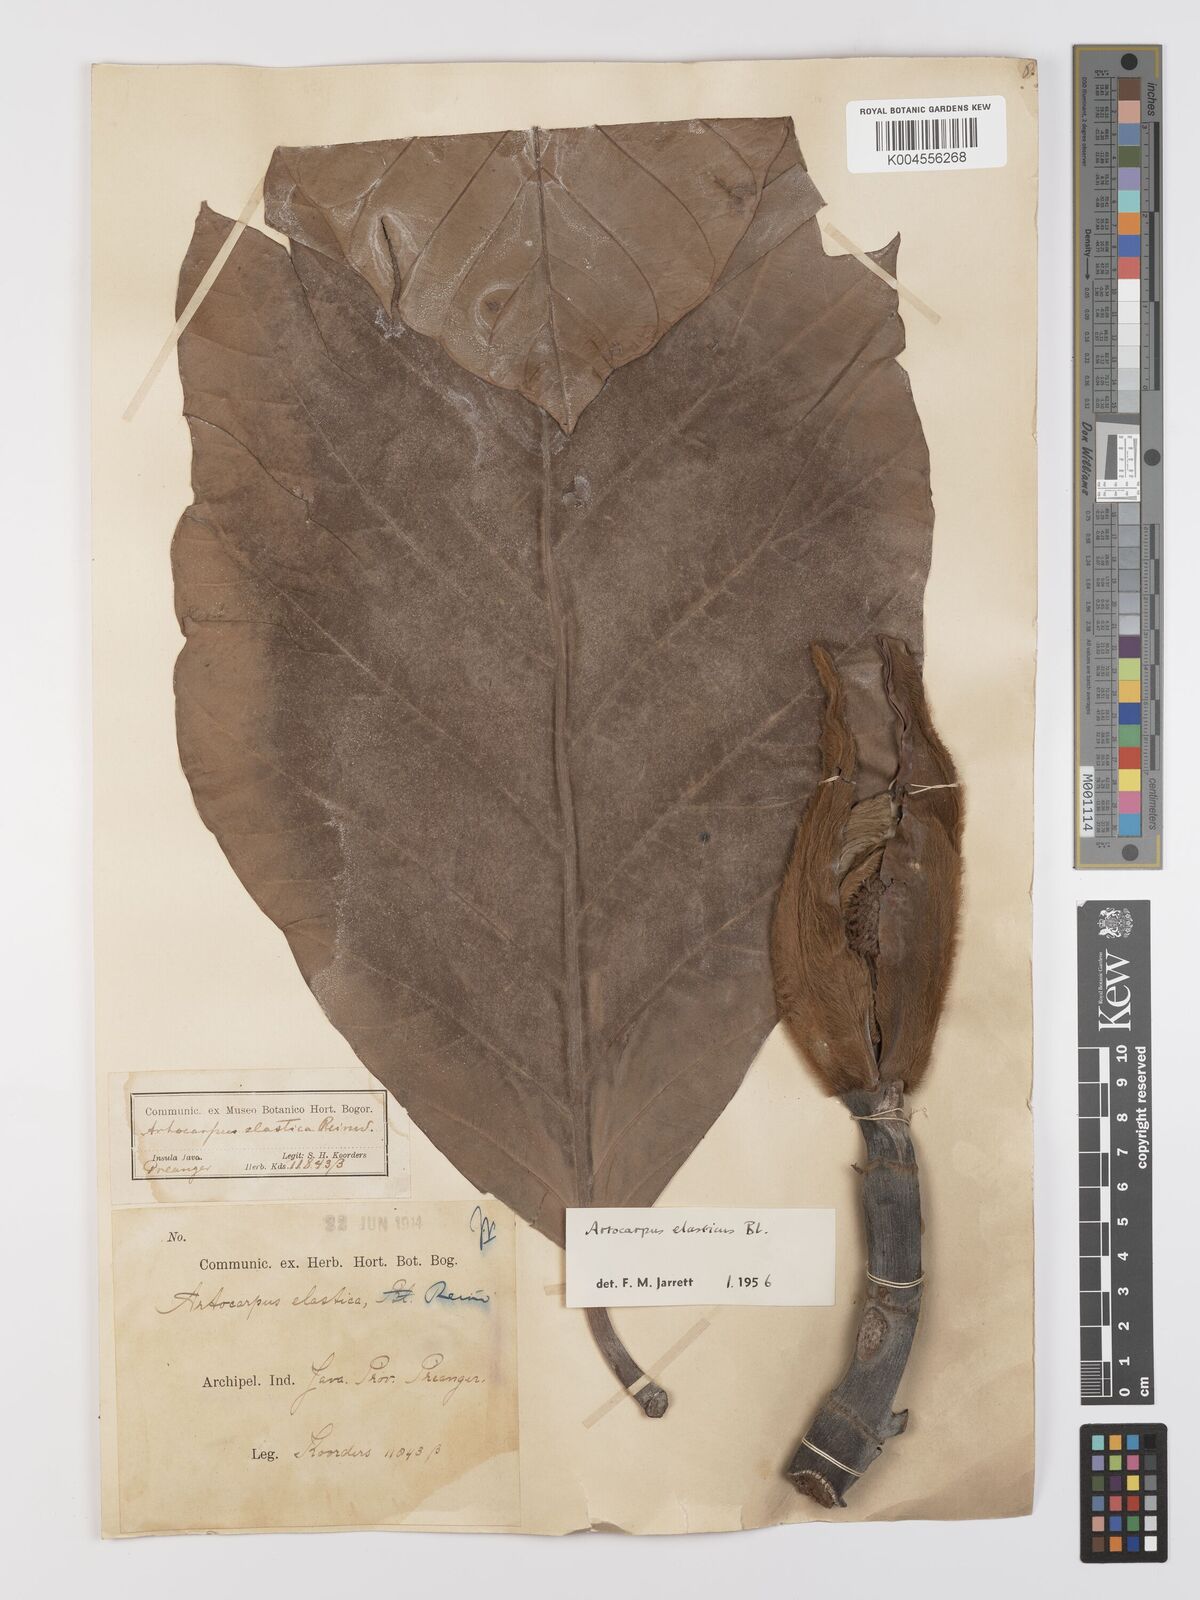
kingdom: Plantae
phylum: Tracheophyta
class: Magnoliopsida
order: Rosales
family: Moraceae
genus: Artocarpus
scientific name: Artocarpus elasticus
